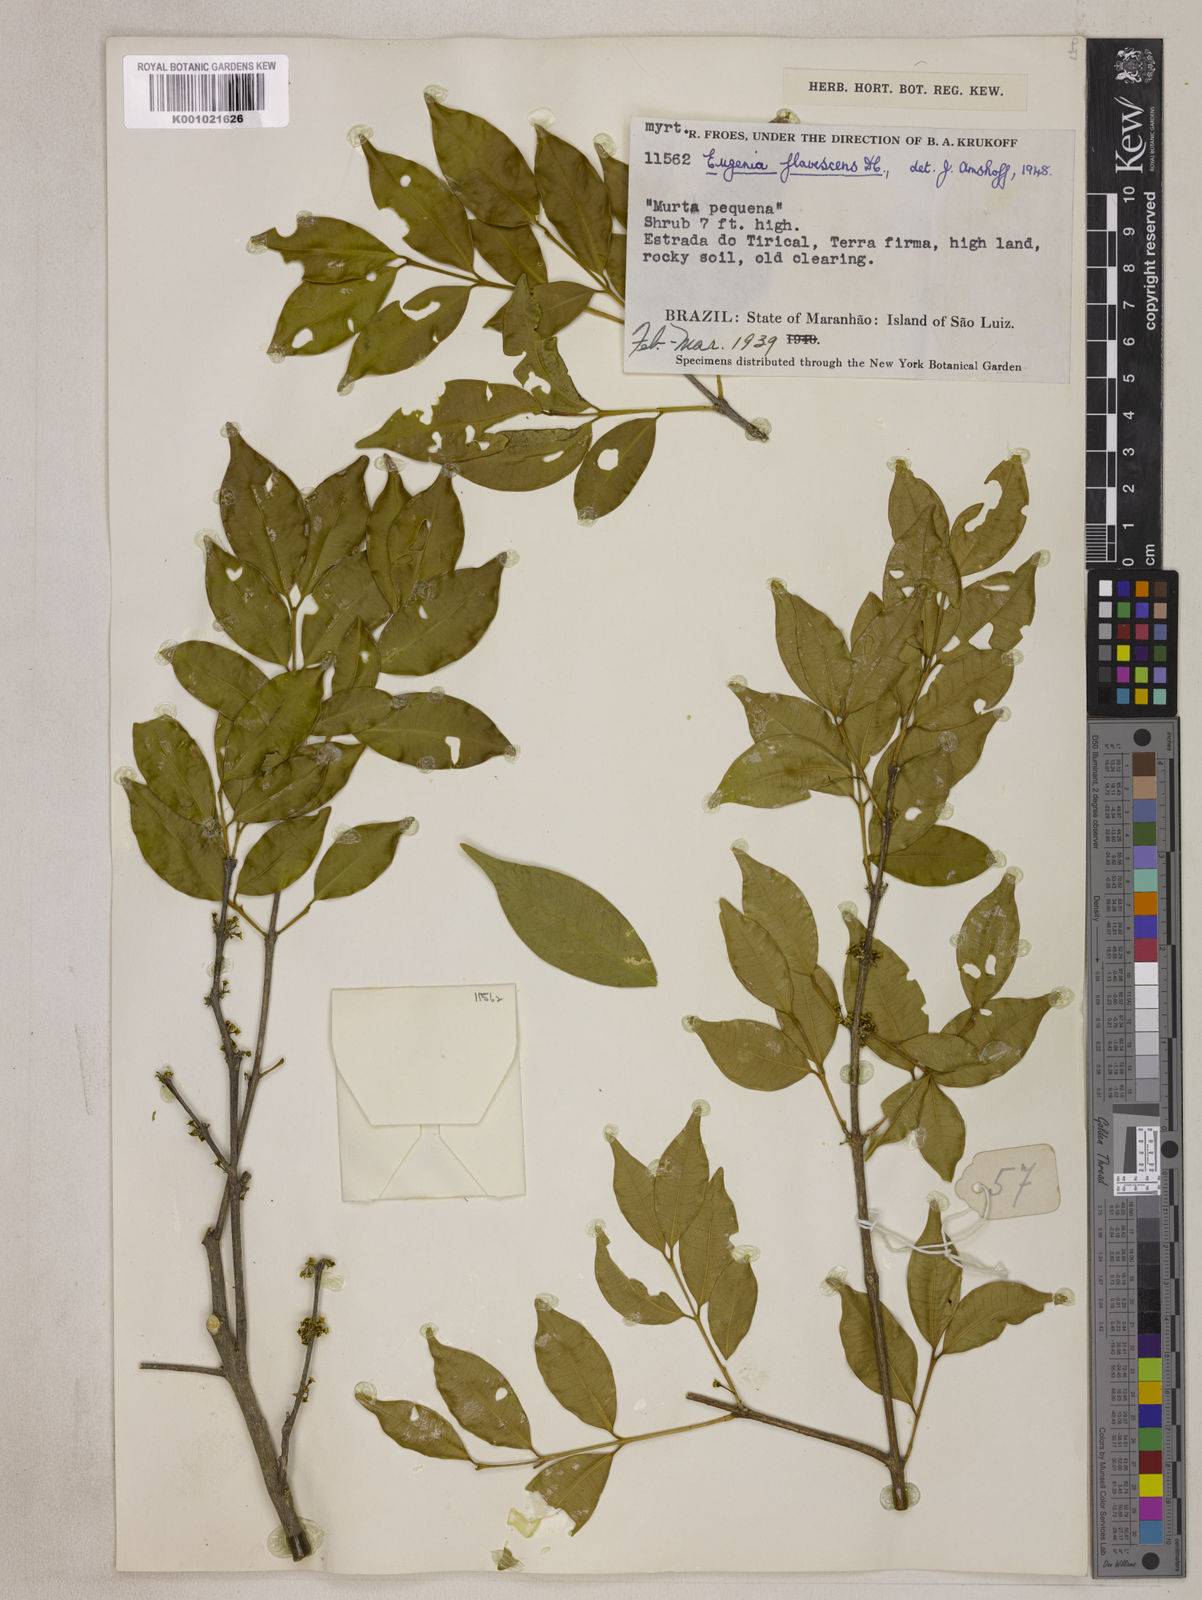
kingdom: Plantae
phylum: Tracheophyta
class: Magnoliopsida
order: Myrtales
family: Myrtaceae
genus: Eugenia
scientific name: Eugenia flavescens
